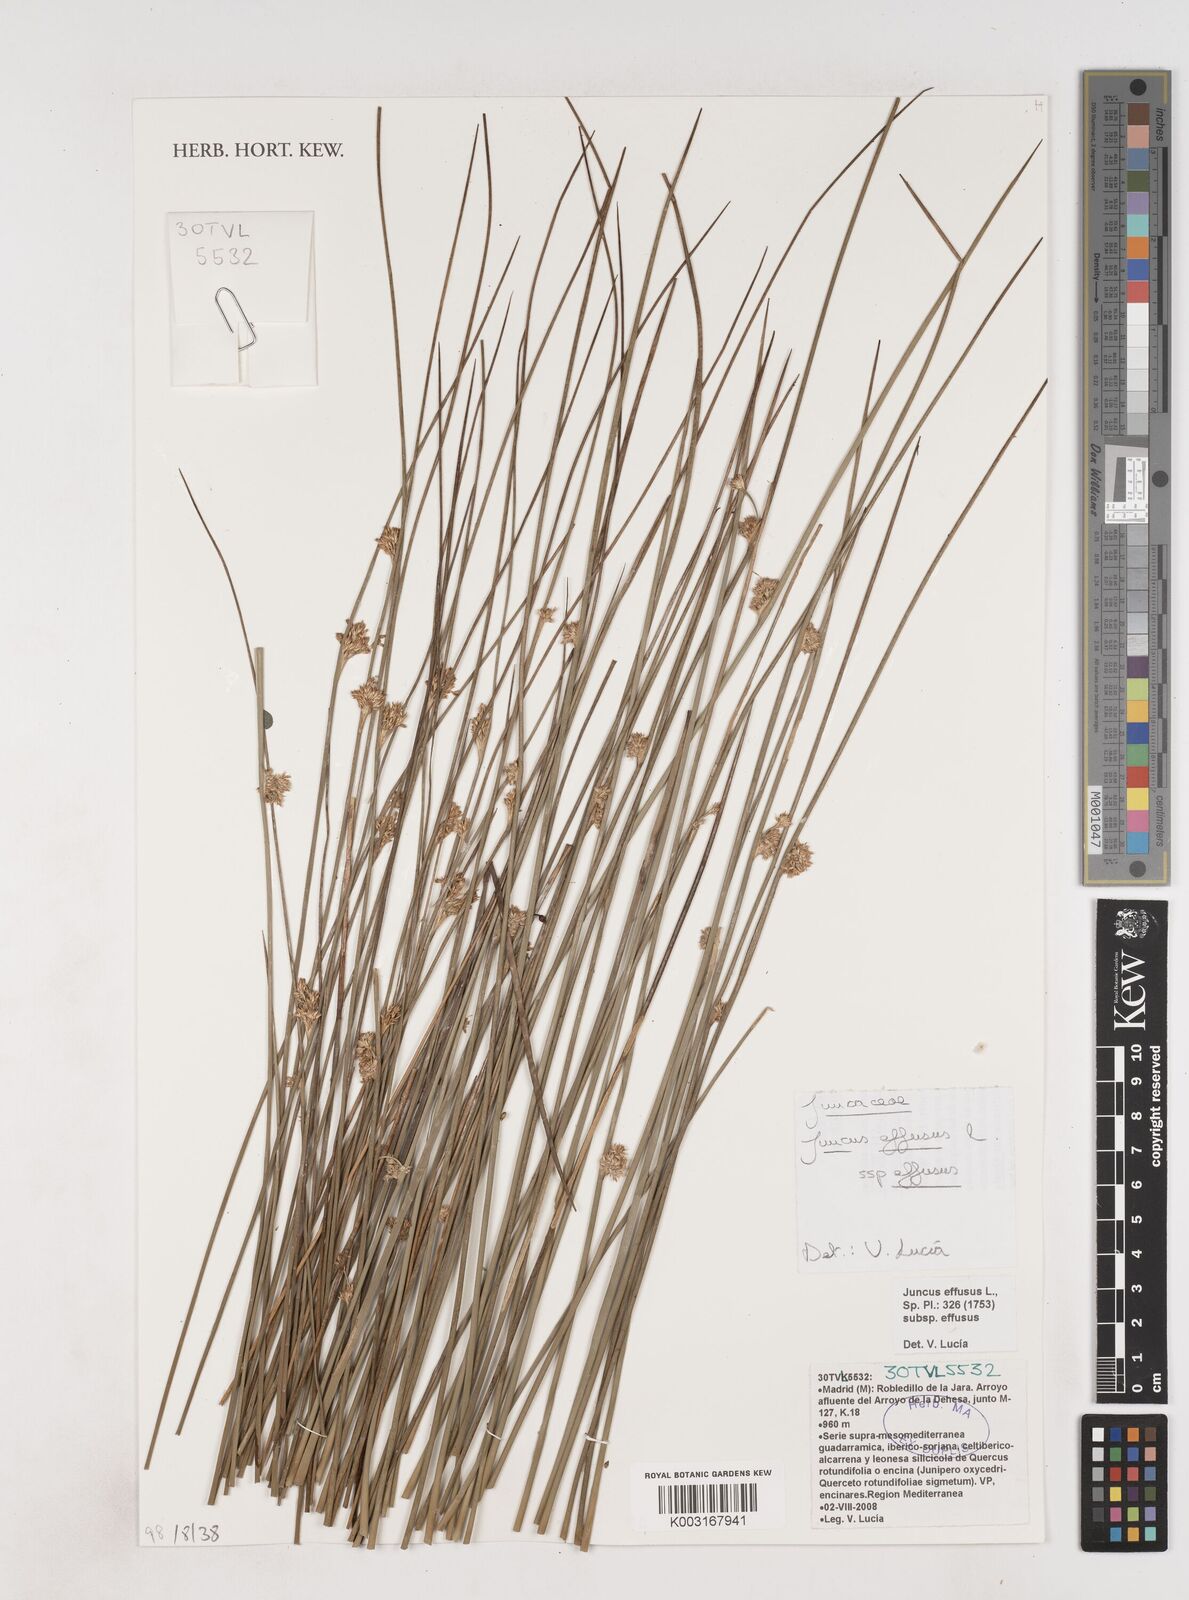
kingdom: Plantae
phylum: Tracheophyta
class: Liliopsida
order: Poales
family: Juncaceae
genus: Juncus
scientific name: Juncus effusus
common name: Soft rush
